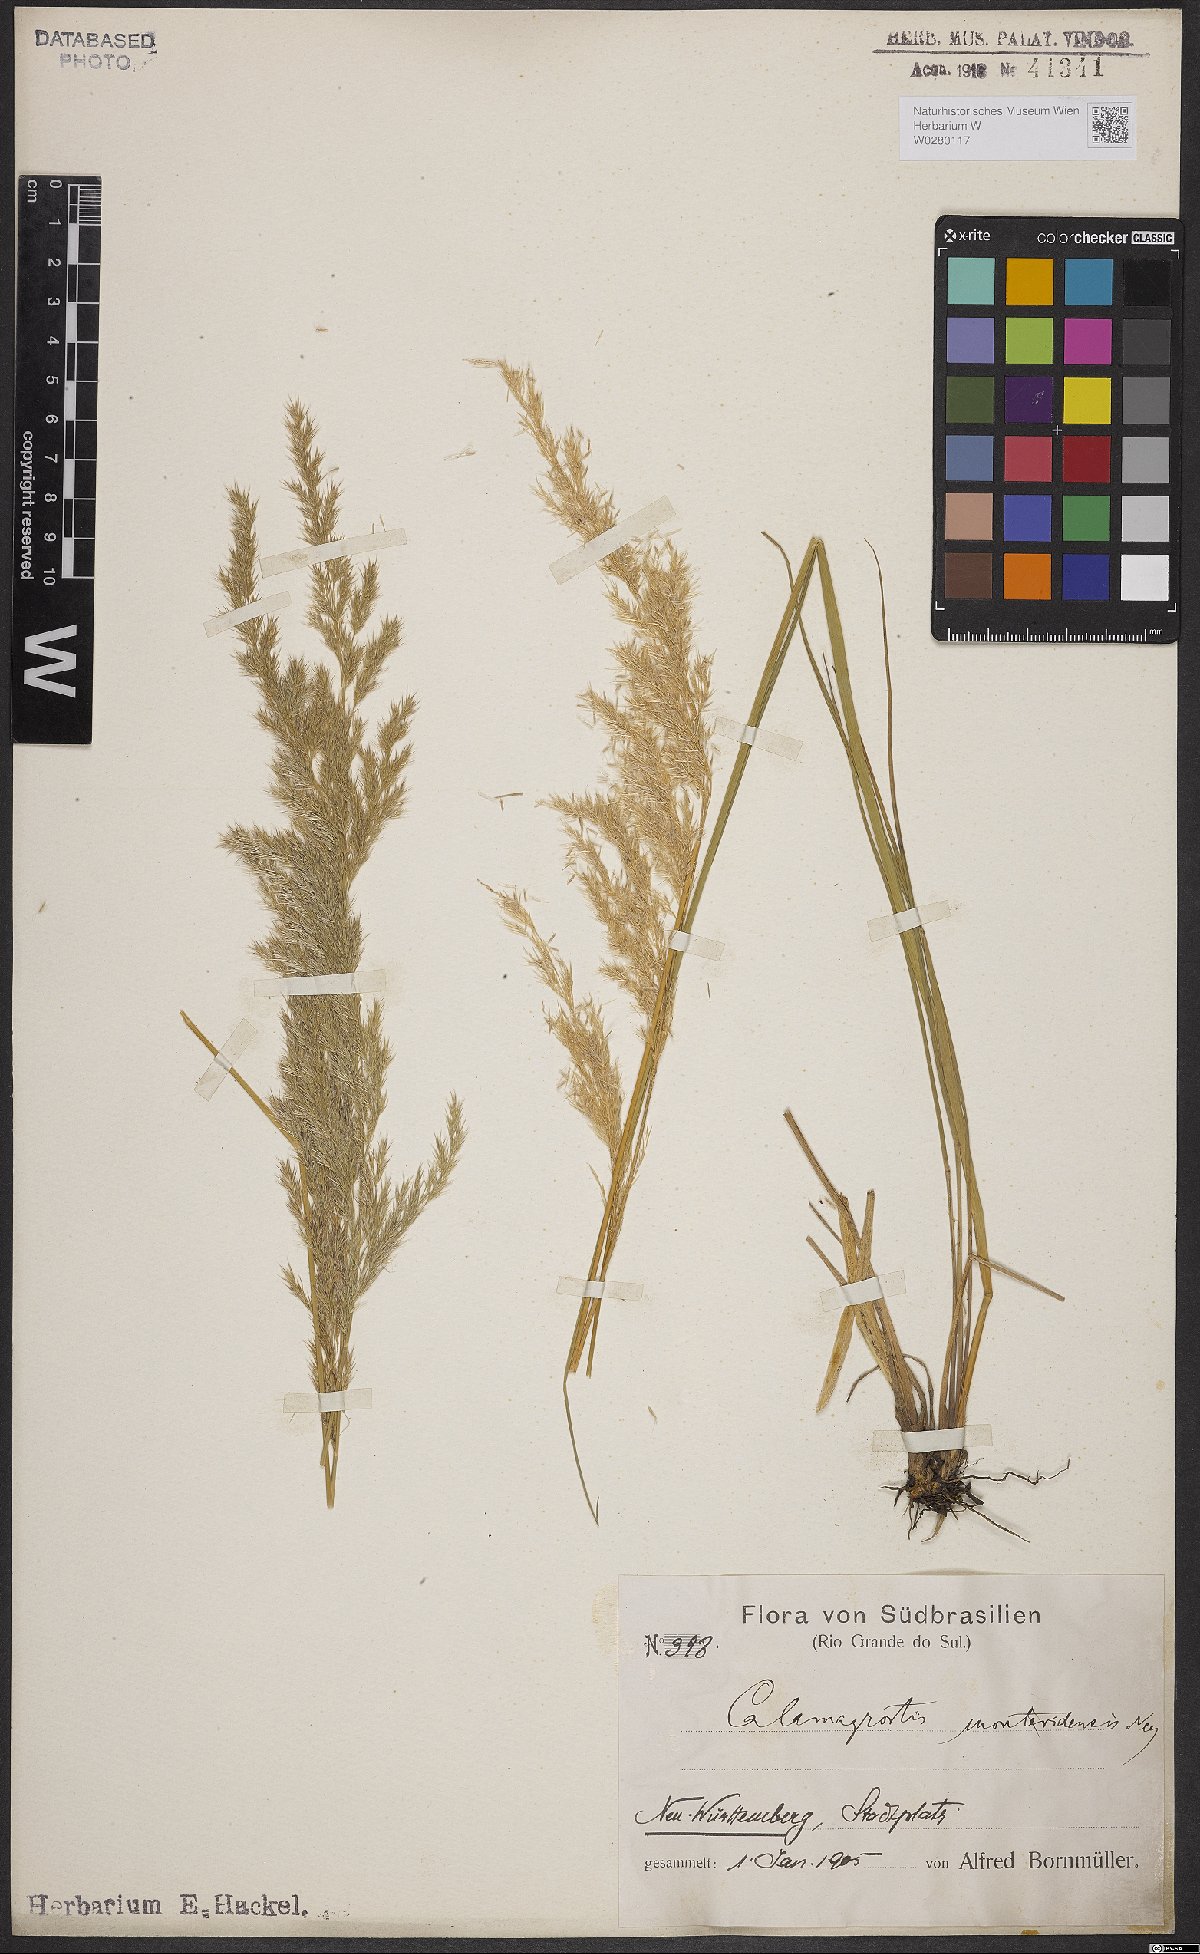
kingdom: Plantae
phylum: Tracheophyta
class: Liliopsida
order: Poales
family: Poaceae
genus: Cinnagrostis
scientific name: Cinnagrostis viridiflavescens
